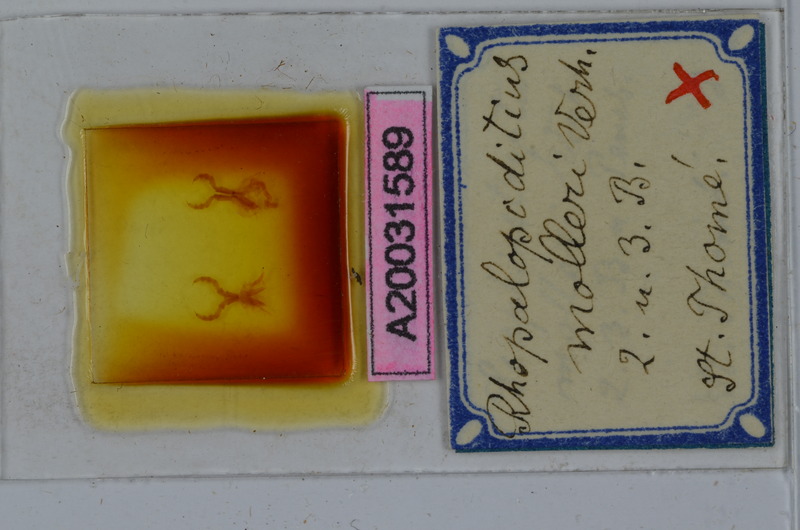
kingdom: Animalia
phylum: Arthropoda
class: Diplopoda
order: Spirostreptida
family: Spirostreptidae
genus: Globanus
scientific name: Globanus integer
